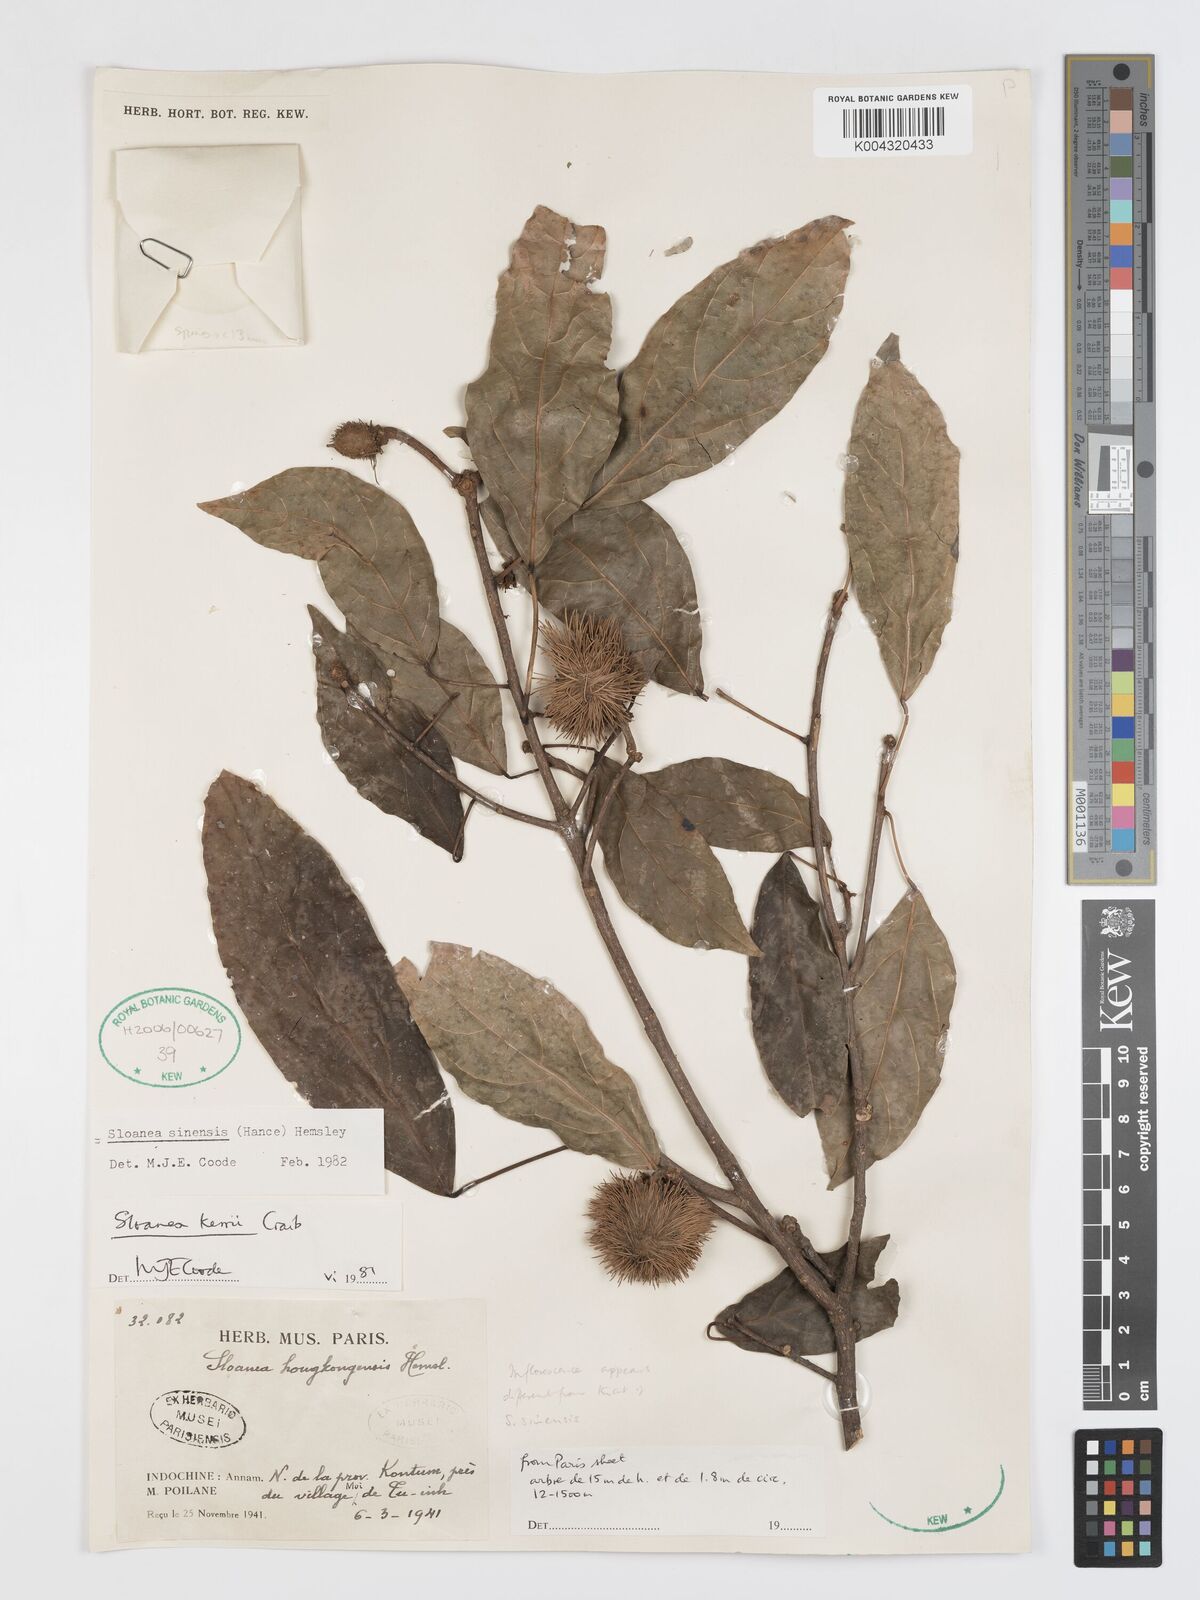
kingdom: Plantae
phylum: Tracheophyta
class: Magnoliopsida
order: Oxalidales
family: Elaeocarpaceae
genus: Sloanea
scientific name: Sloanea sinensis
